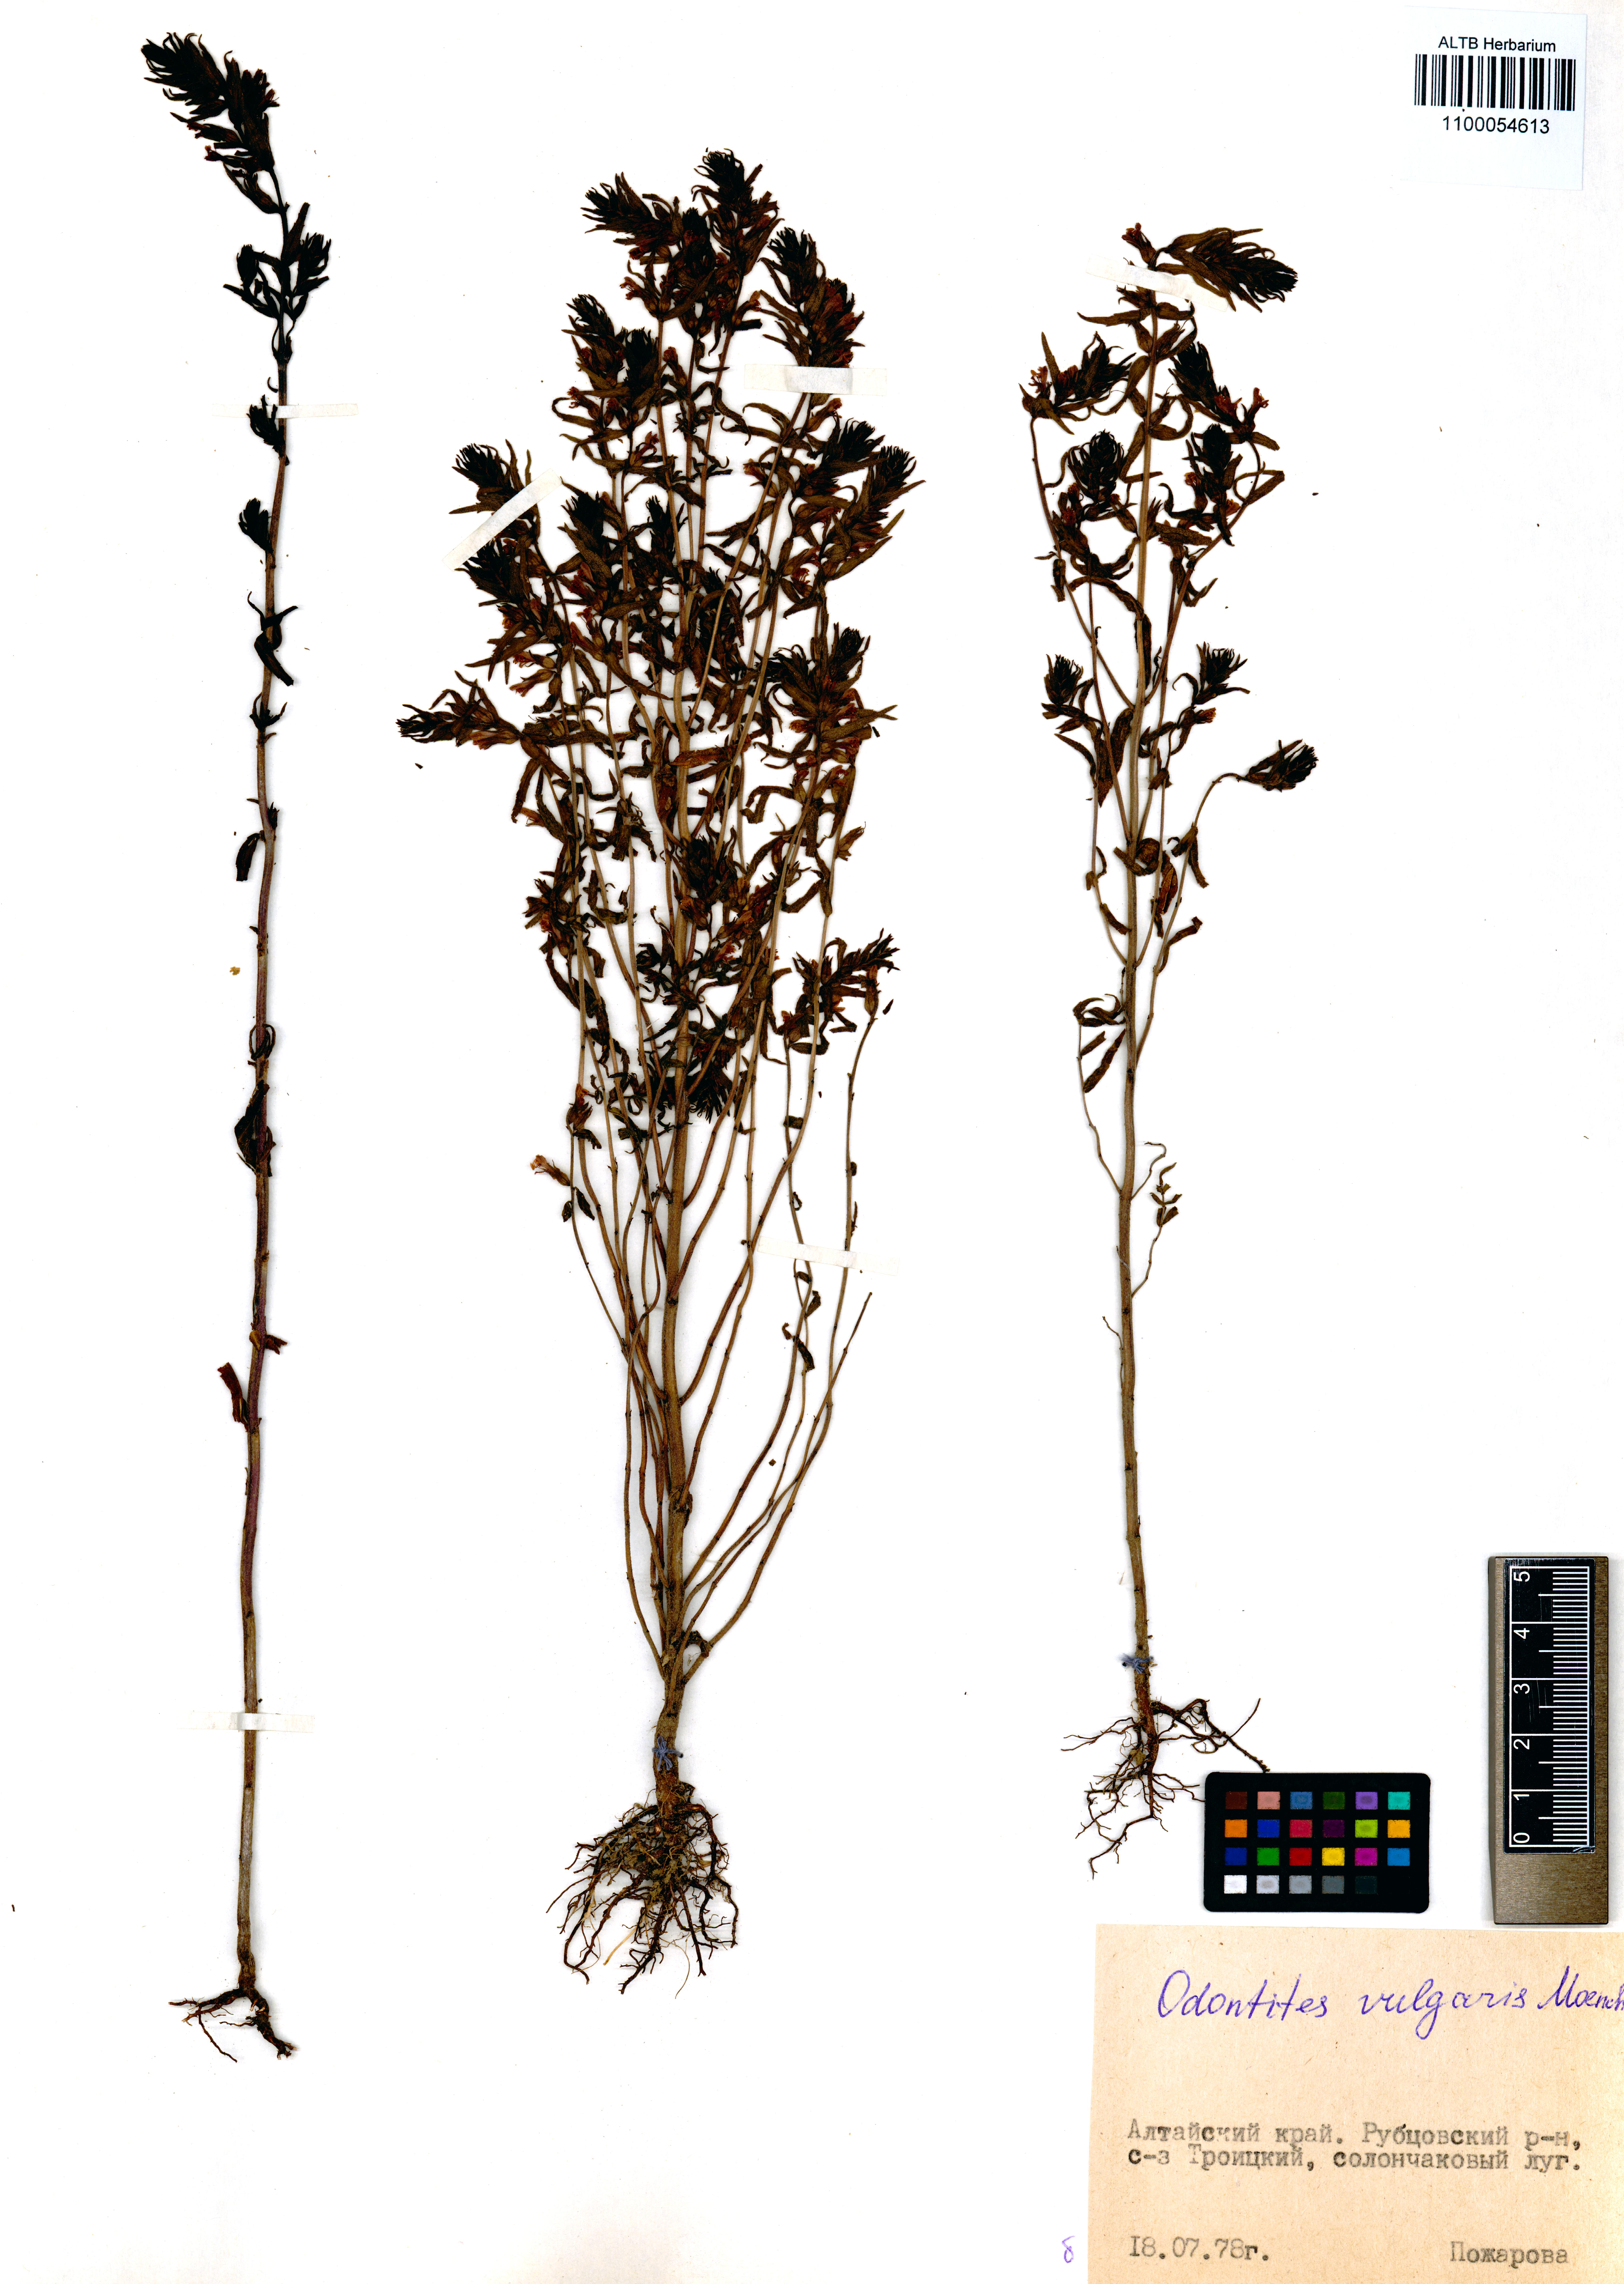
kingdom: Plantae
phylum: Tracheophyta
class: Magnoliopsida
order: Lamiales
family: Orobanchaceae
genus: Odontites
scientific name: Odontites vulgaris
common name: Broomrape
